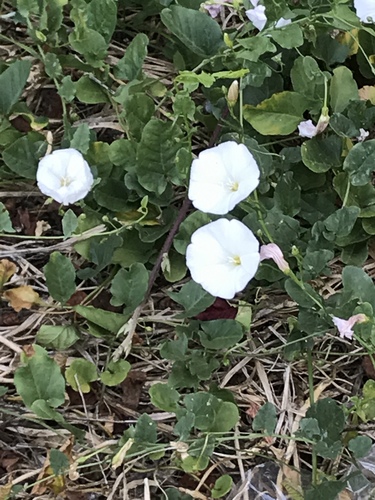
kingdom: Plantae
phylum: Tracheophyta
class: Magnoliopsida
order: Solanales
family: Convolvulaceae
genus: Convolvulus
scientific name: Convolvulus arvensis
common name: Field bindweed
